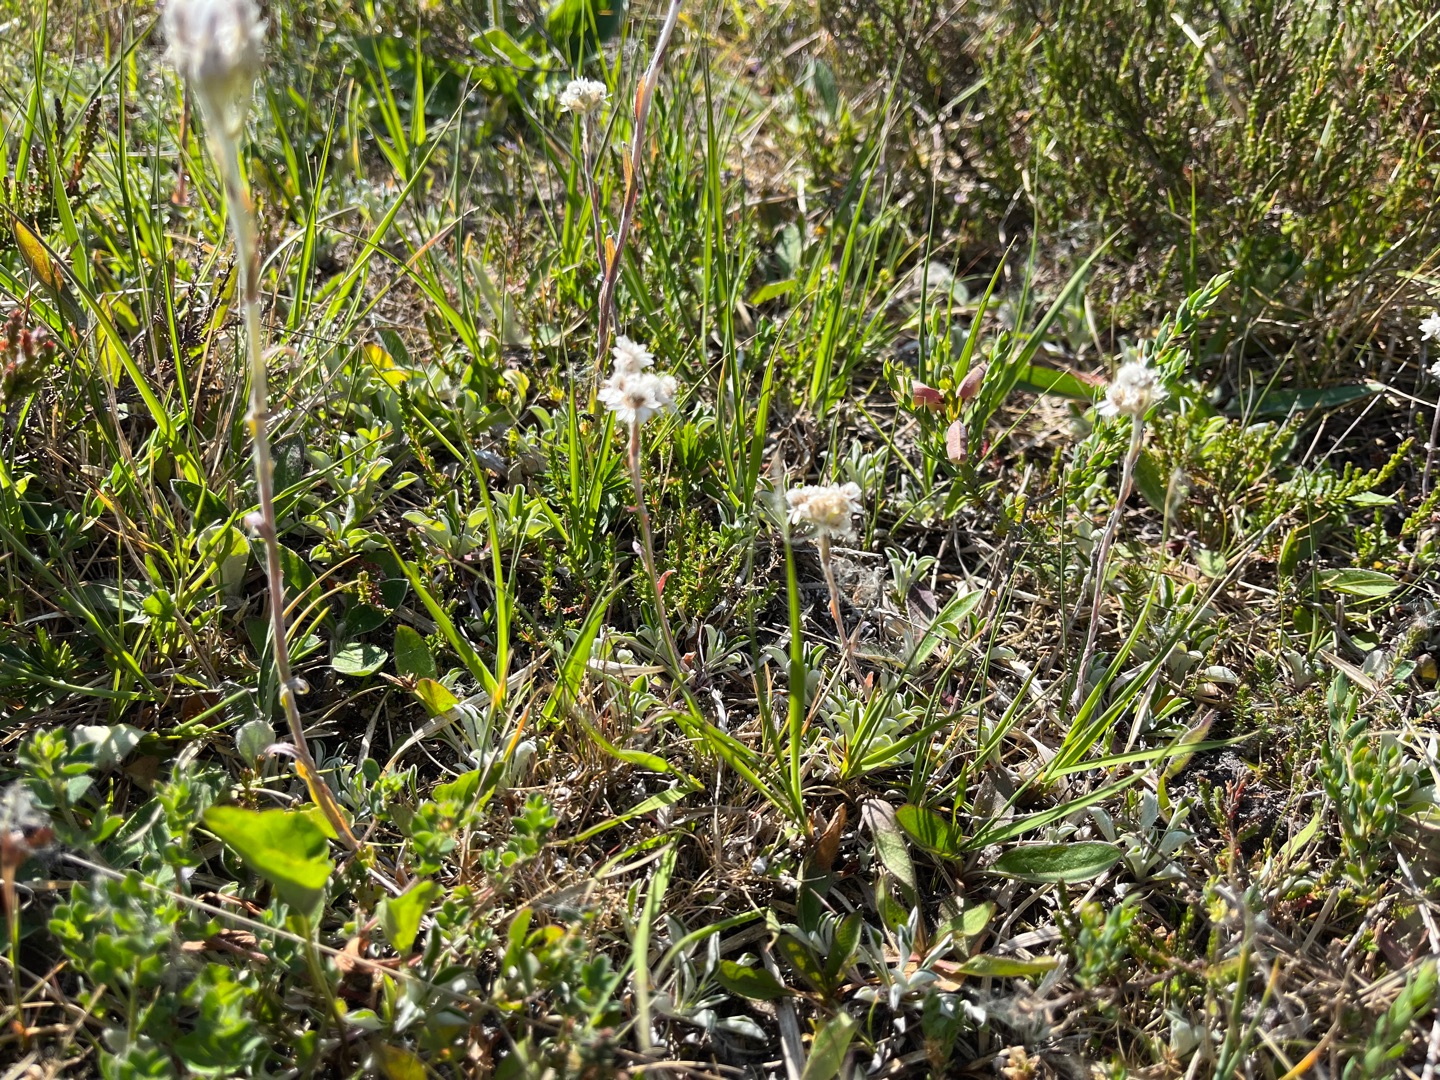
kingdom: Plantae
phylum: Tracheophyta
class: Magnoliopsida
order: Asterales
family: Asteraceae
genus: Antennaria
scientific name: Antennaria dioica
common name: Kattefod
